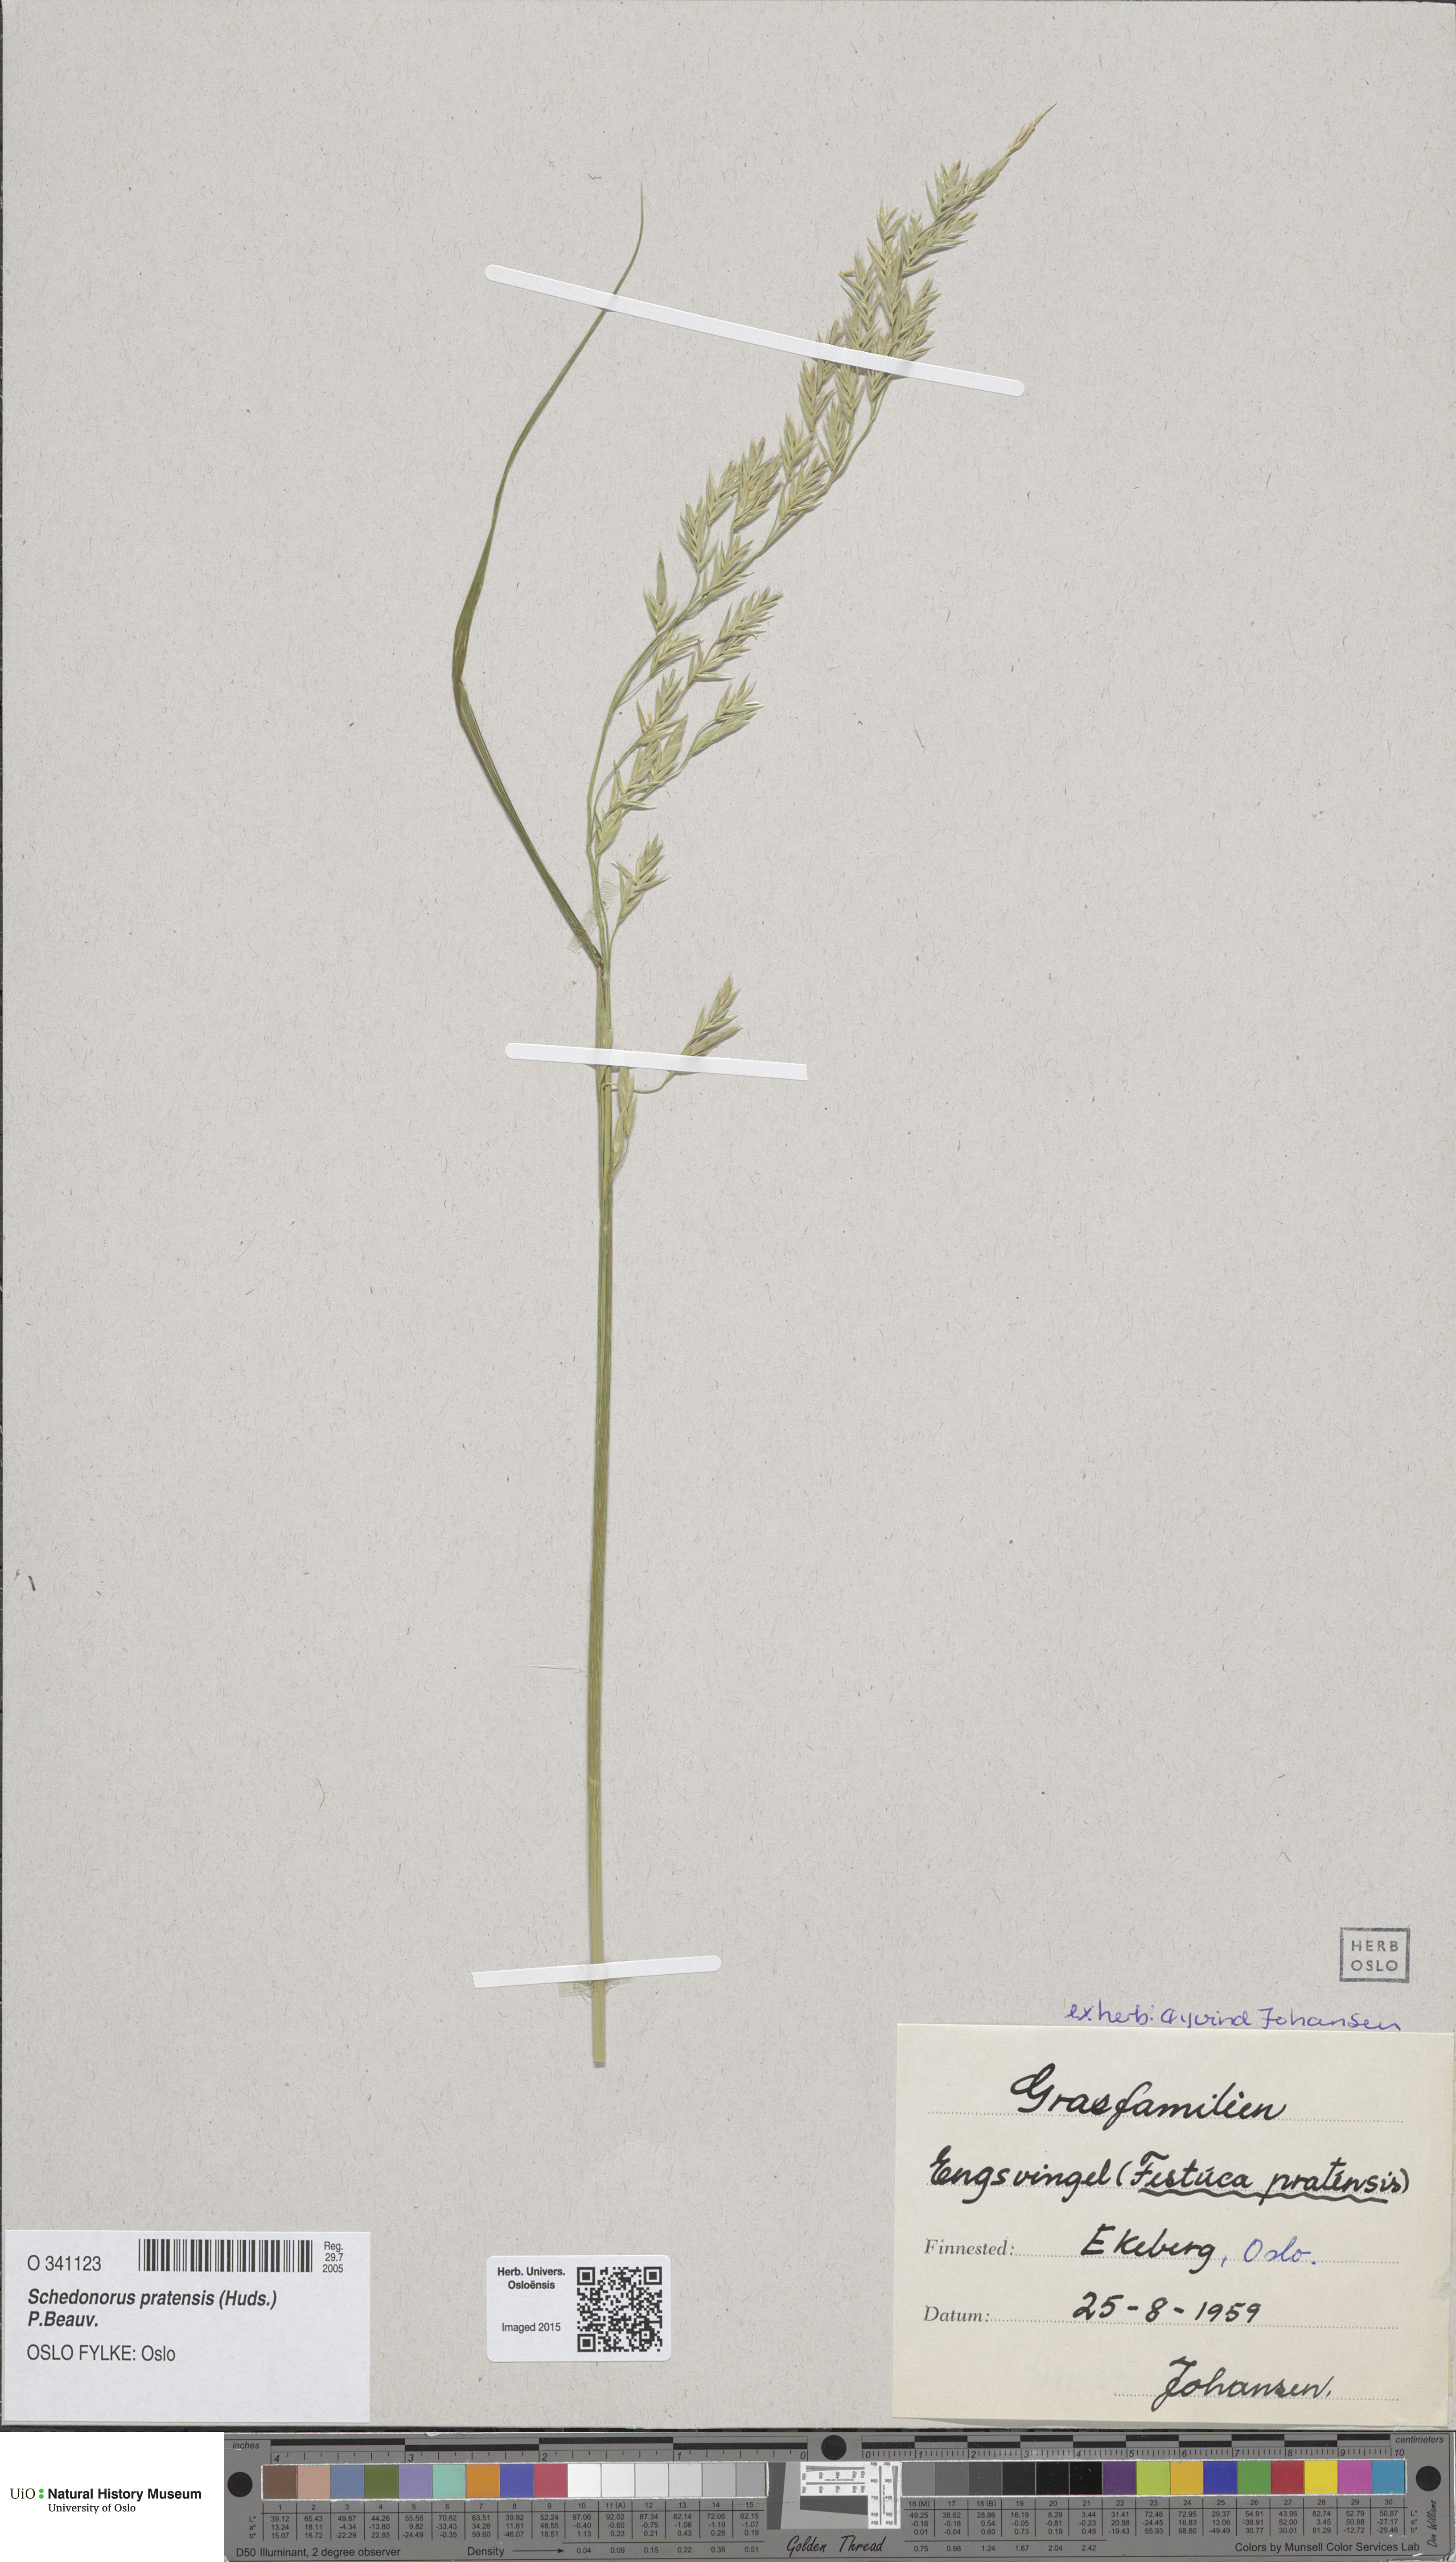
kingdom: Plantae
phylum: Tracheophyta
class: Liliopsida
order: Poales
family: Poaceae
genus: Lolium
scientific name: Lolium pratense
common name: Dover grass
